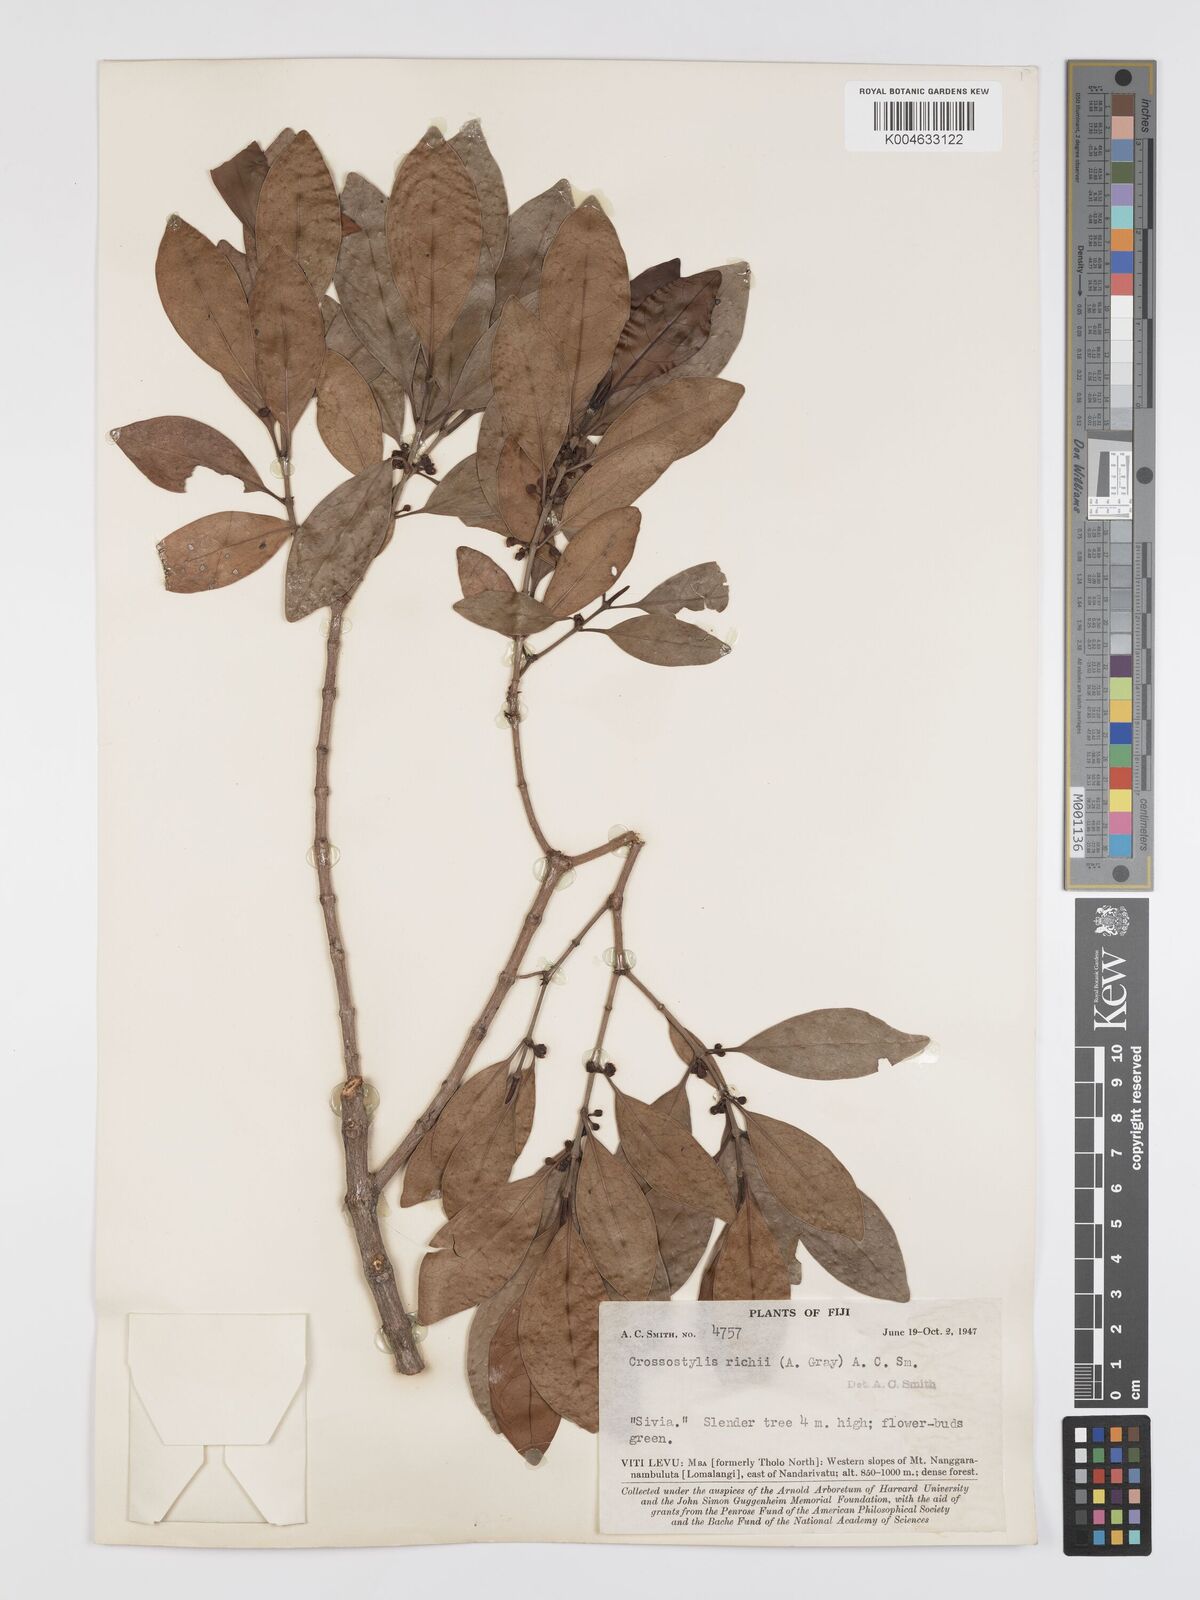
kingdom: Plantae
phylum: Tracheophyta
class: Magnoliopsida
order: Malpighiales
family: Rhizophoraceae
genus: Crossostylis
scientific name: Crossostylis richii
